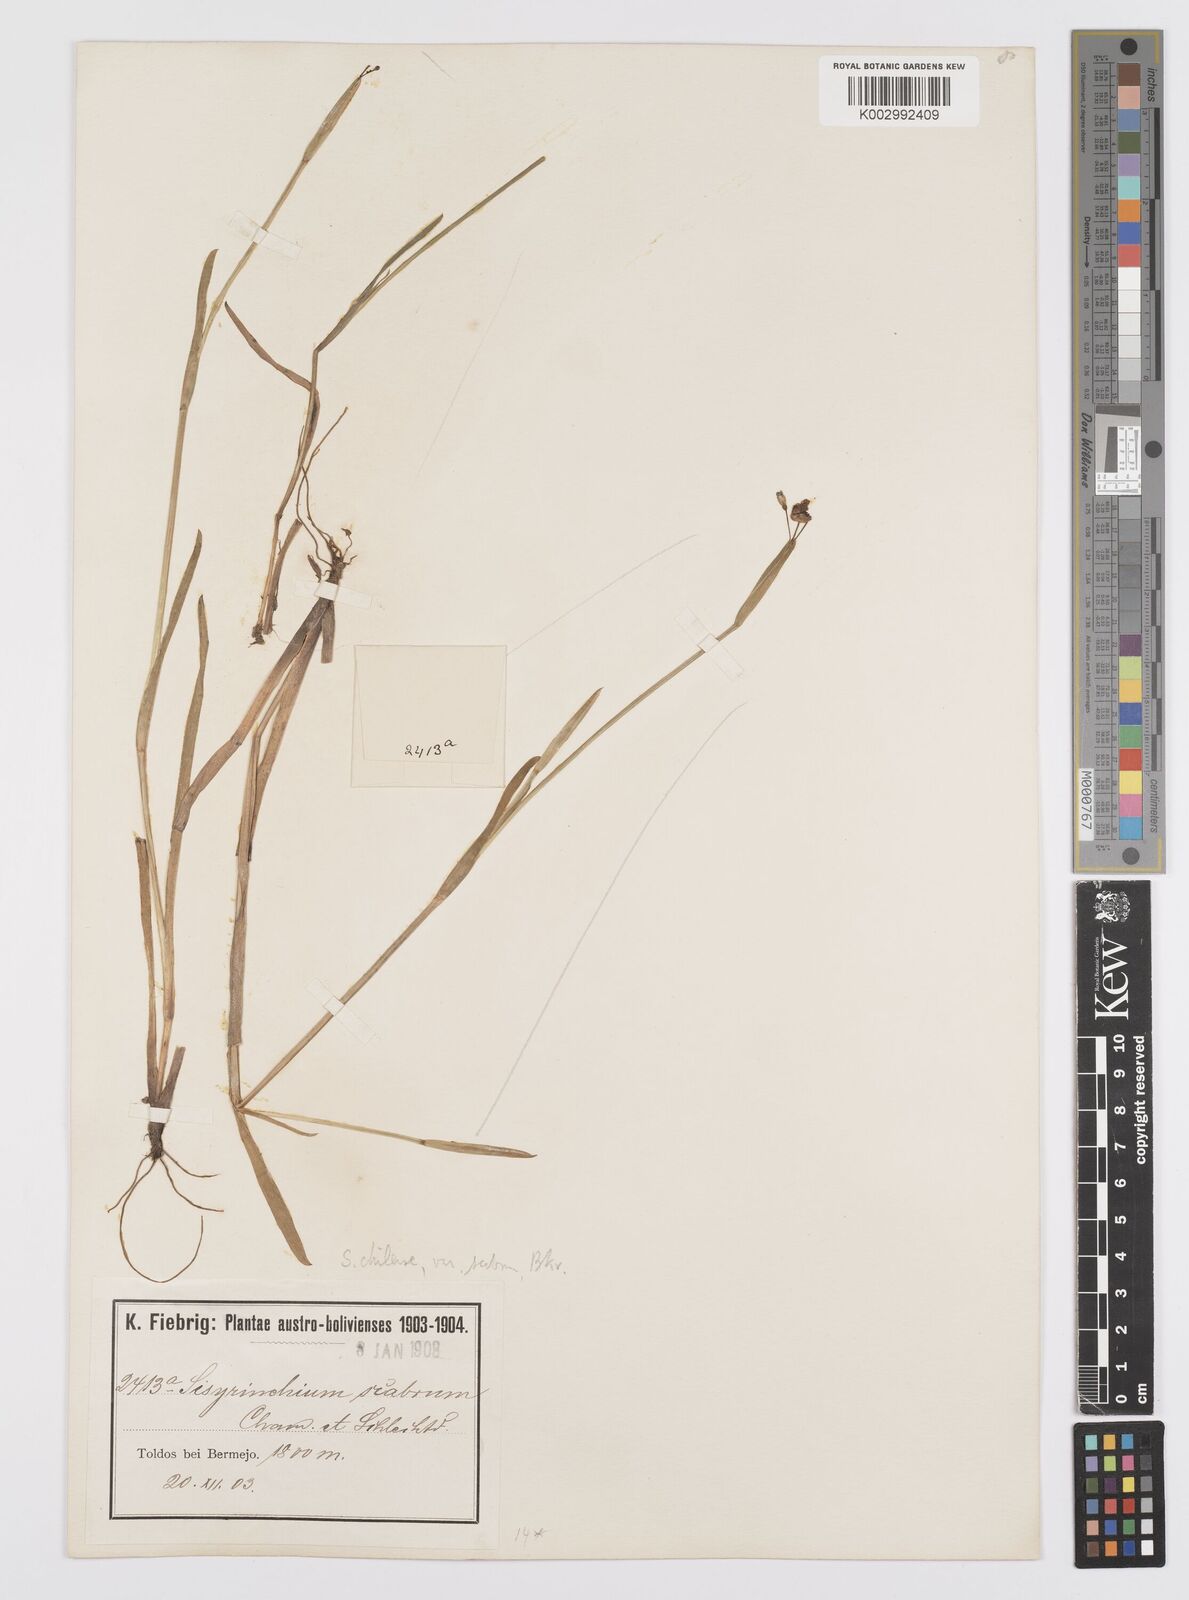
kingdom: Plantae
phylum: Tracheophyta
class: Liliopsida
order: Asparagales
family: Iridaceae
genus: Sisyrinchium
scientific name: Sisyrinchium chilense
